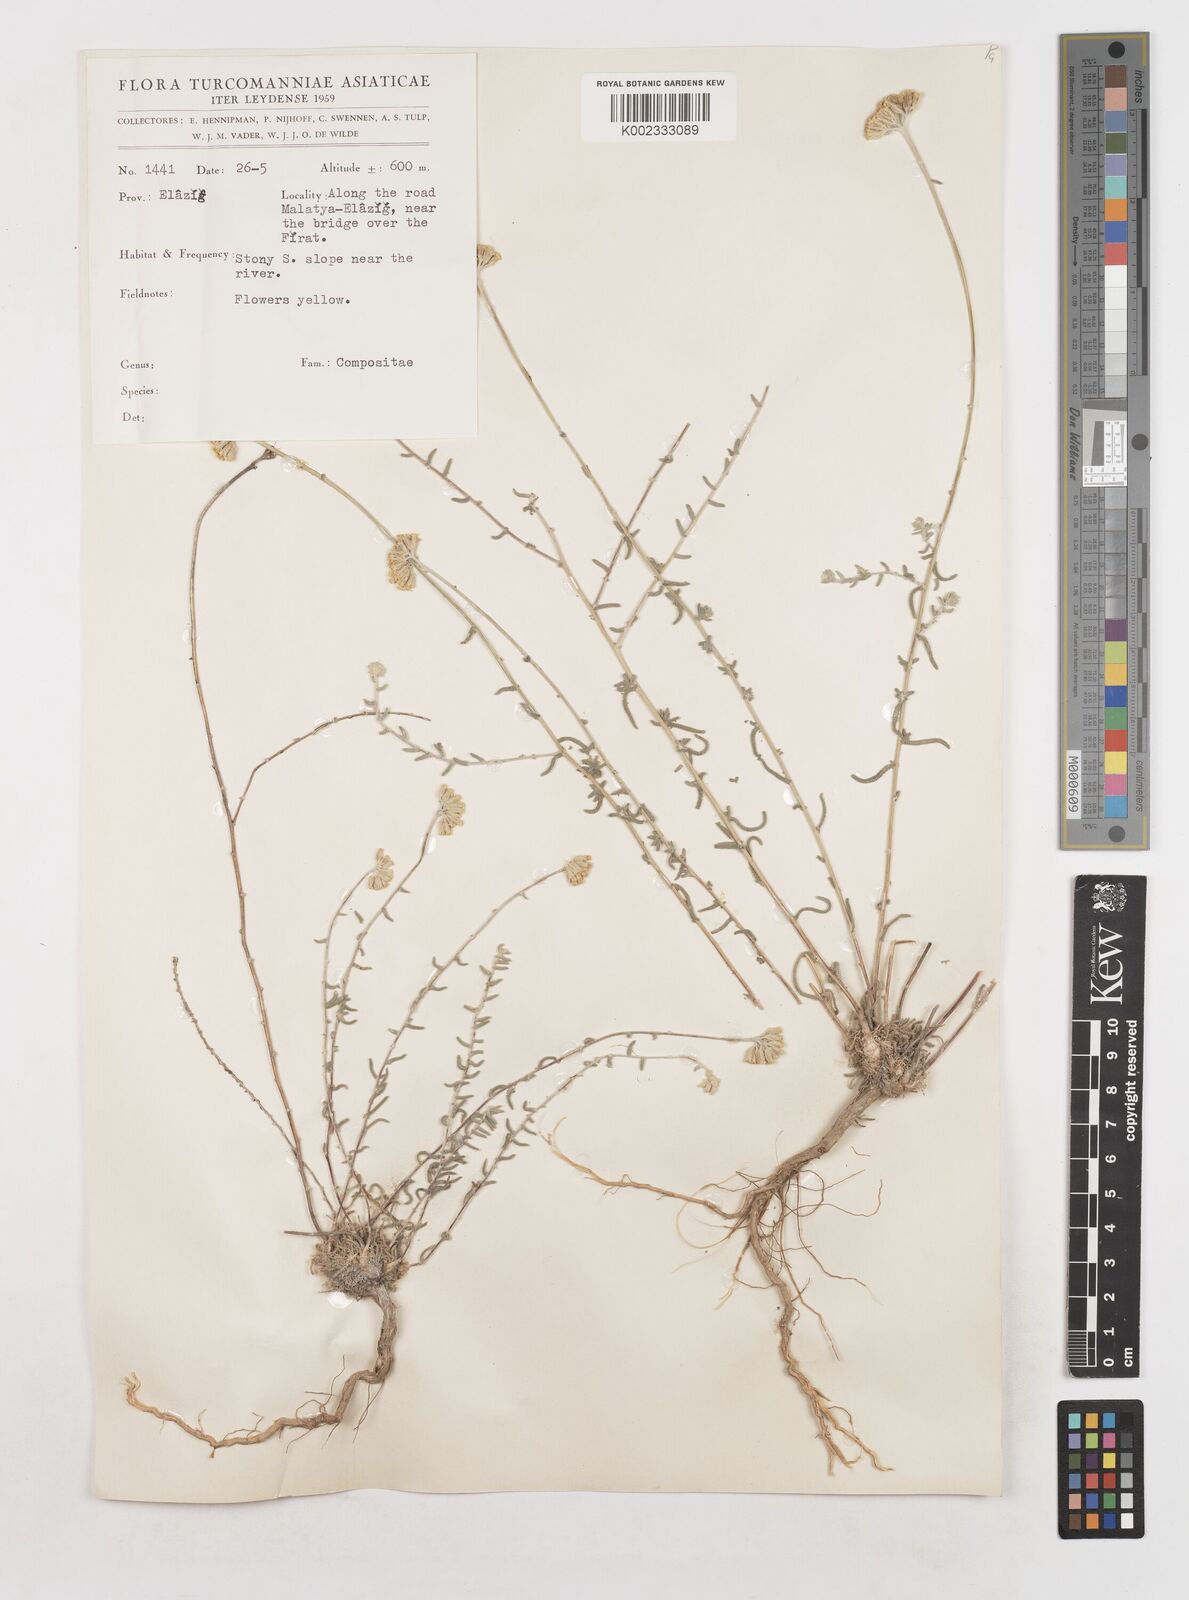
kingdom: Plantae
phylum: Tracheophyta
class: Magnoliopsida
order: Asterales
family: Asteraceae
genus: Achillea
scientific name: Achillea
